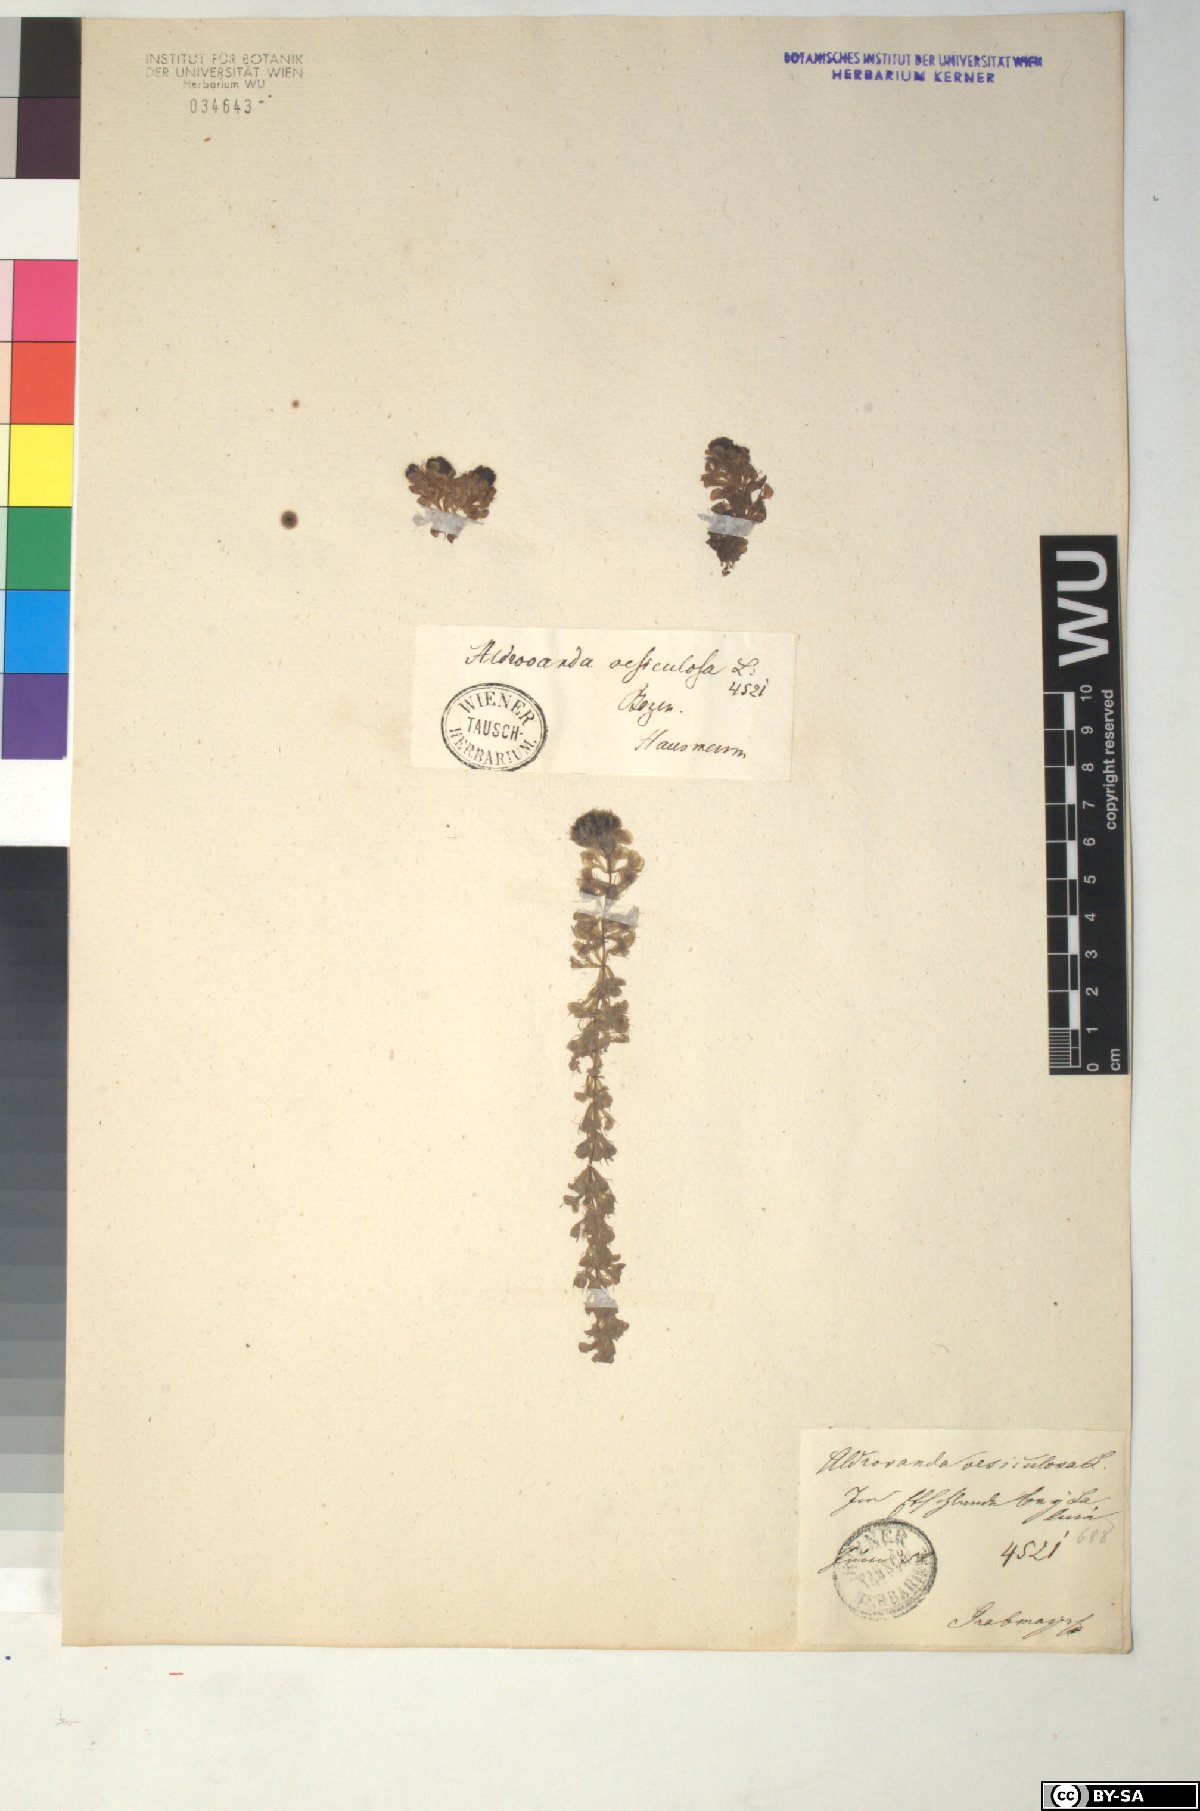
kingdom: Plantae
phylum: Tracheophyta
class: Magnoliopsida
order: Caryophyllales
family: Droseraceae
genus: Aldrovanda
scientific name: Aldrovanda vesiculosa
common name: Waterwheel plant
